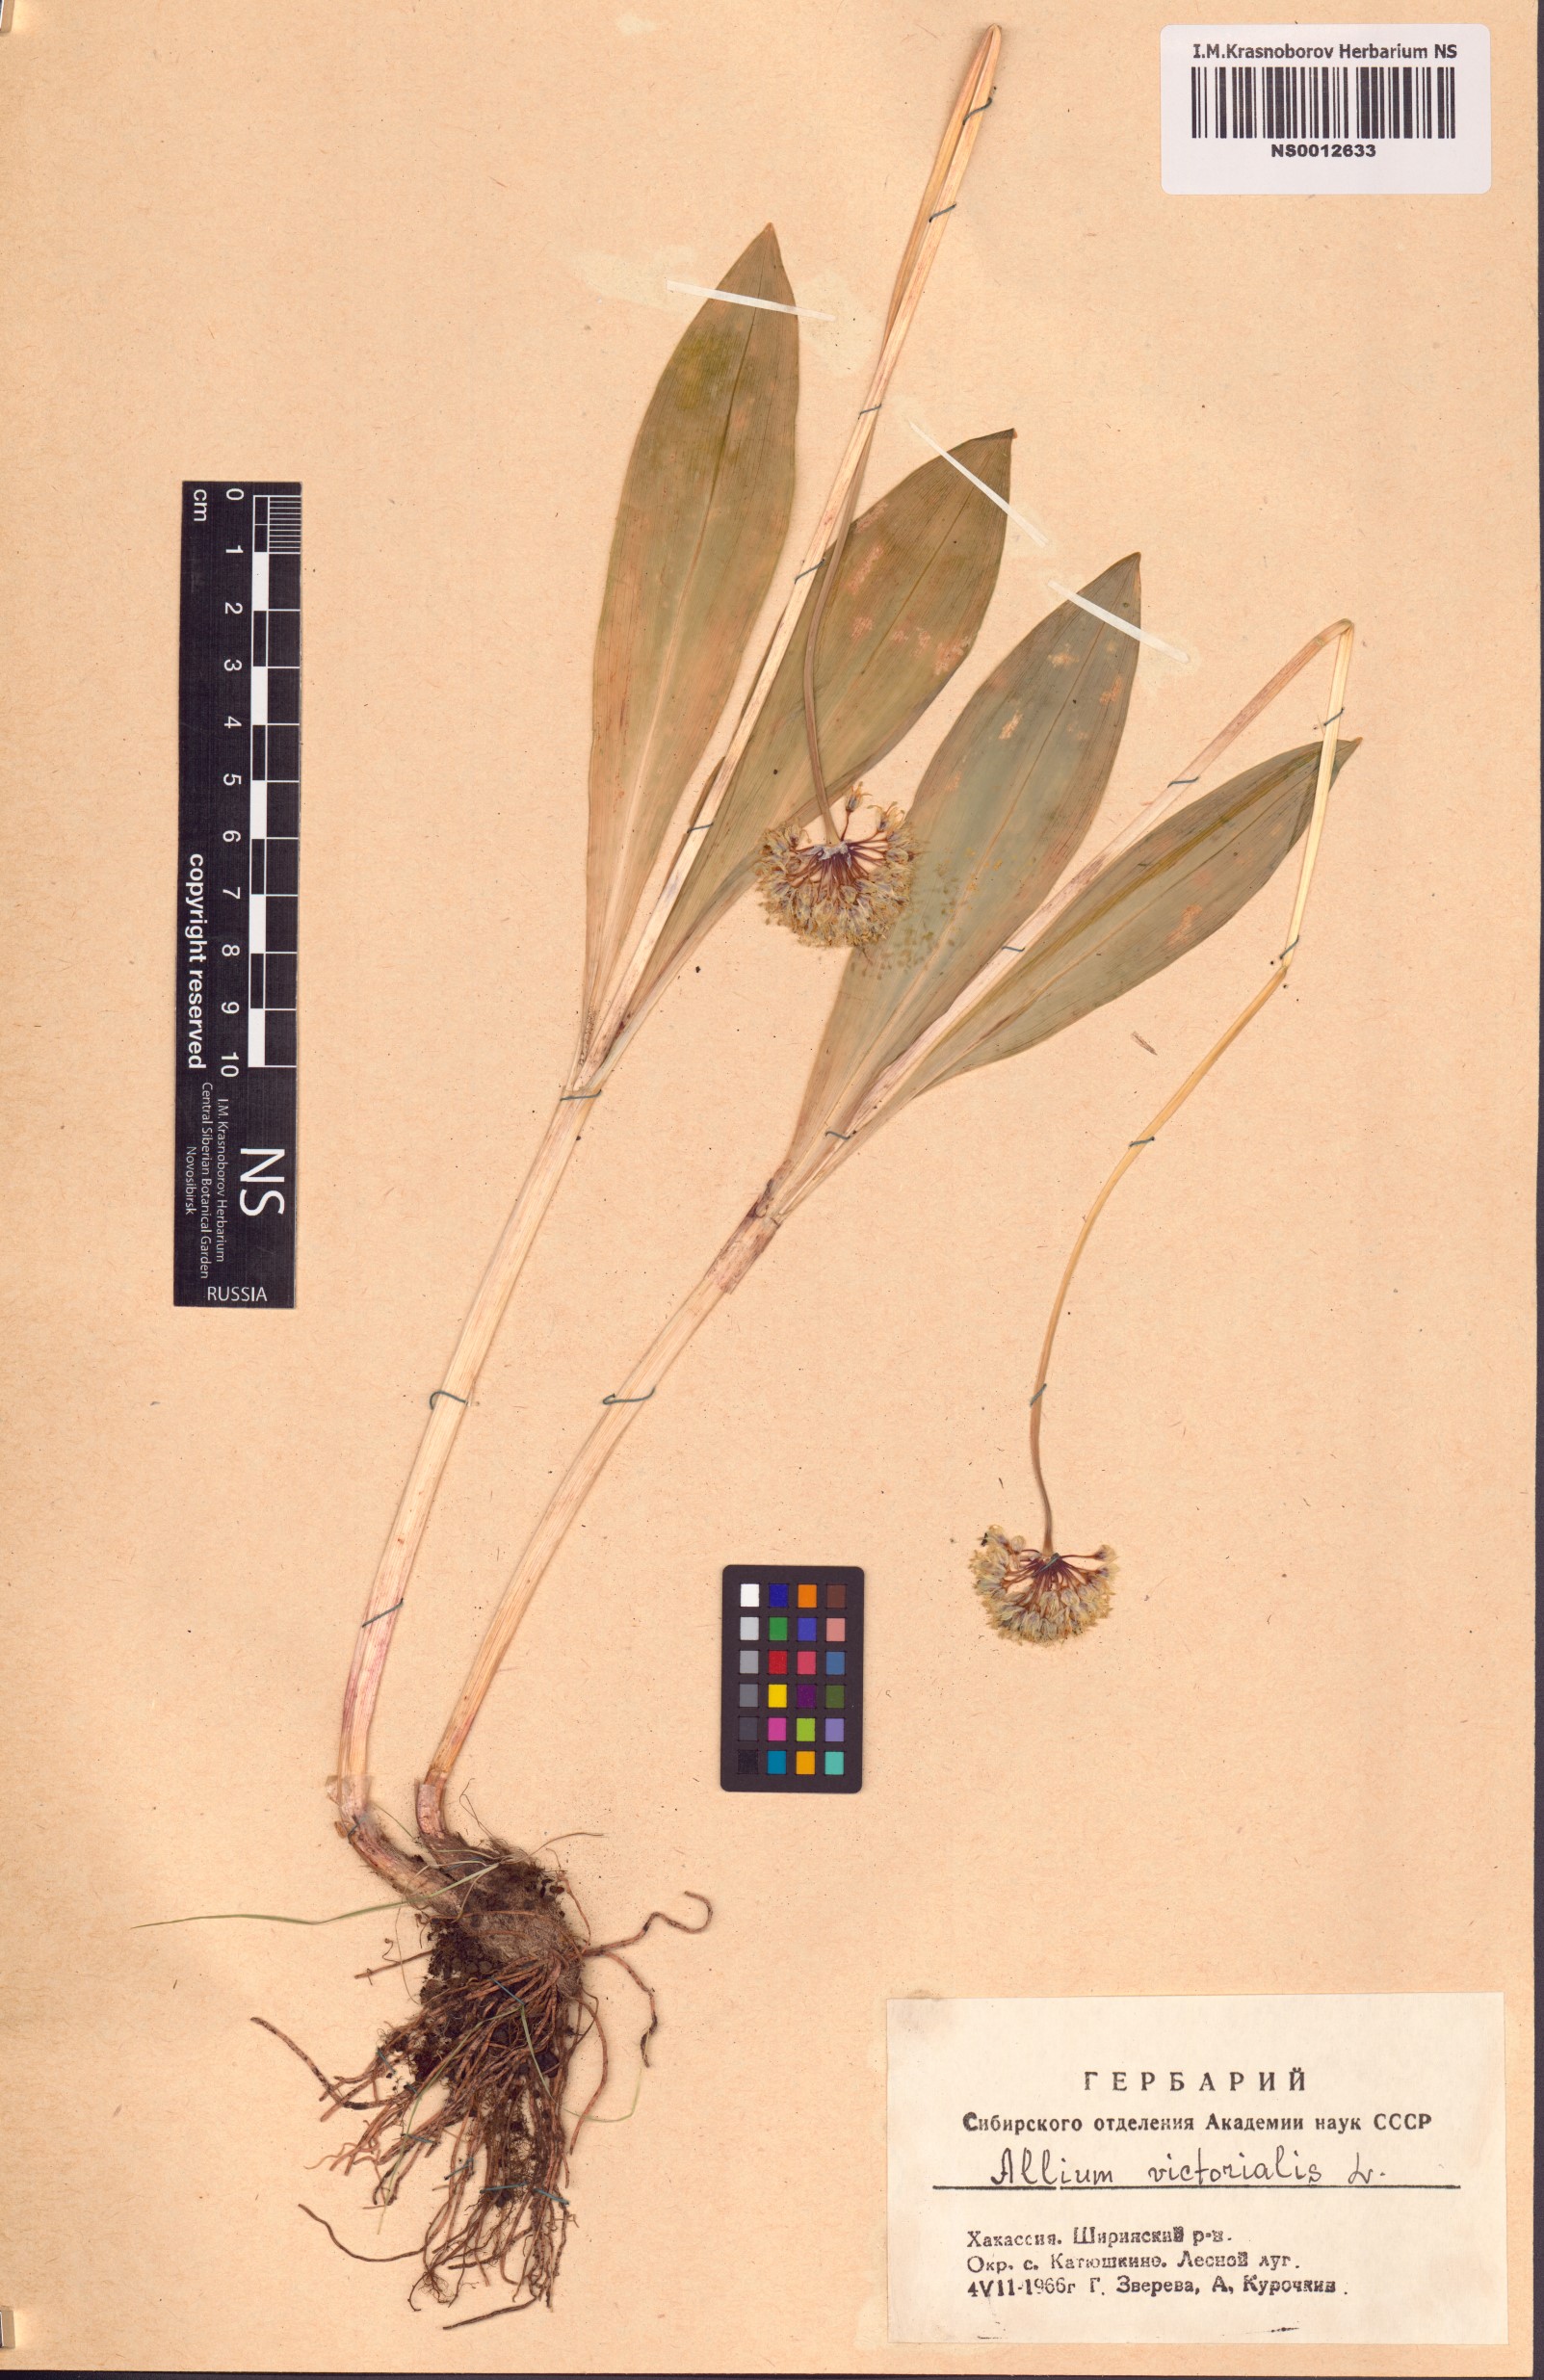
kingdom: Plantae
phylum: Tracheophyta
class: Liliopsida
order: Asparagales
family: Amaryllidaceae
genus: Allium
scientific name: Allium microdictyon
